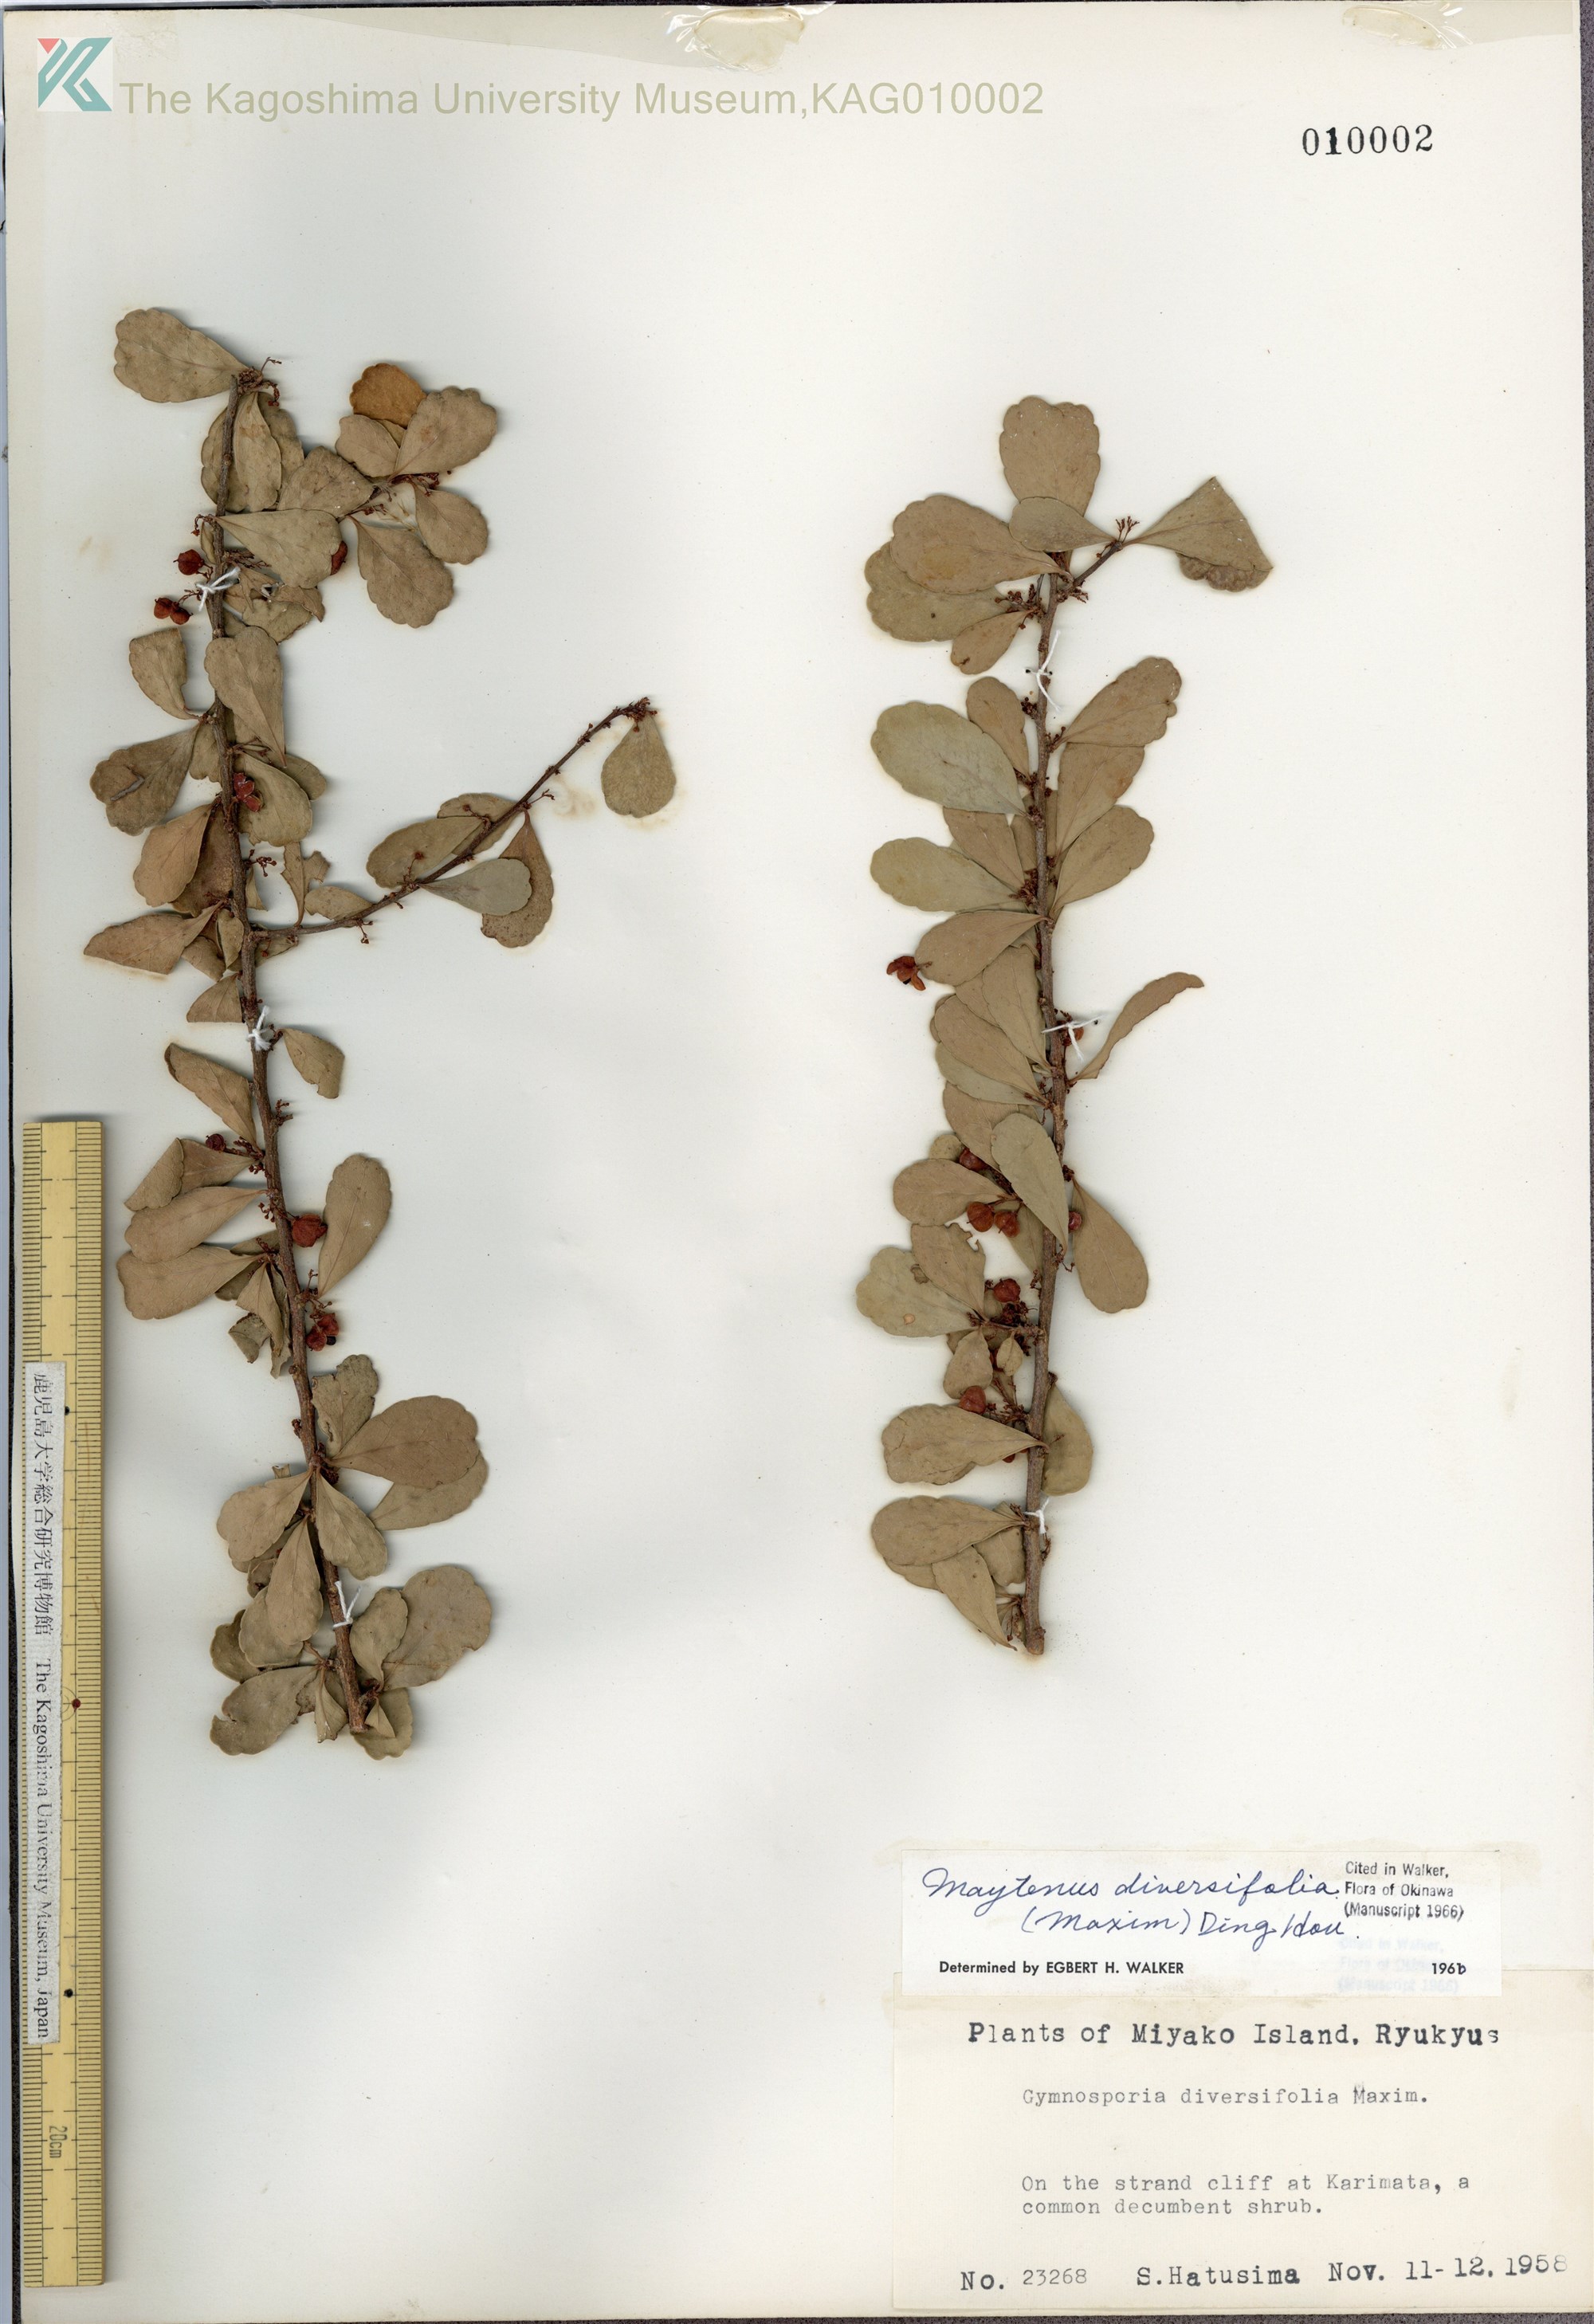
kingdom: Plantae
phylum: Tracheophyta
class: Magnoliopsida
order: Celastrales
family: Celastraceae
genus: Gymnosporia
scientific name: Gymnosporia diversifolia
